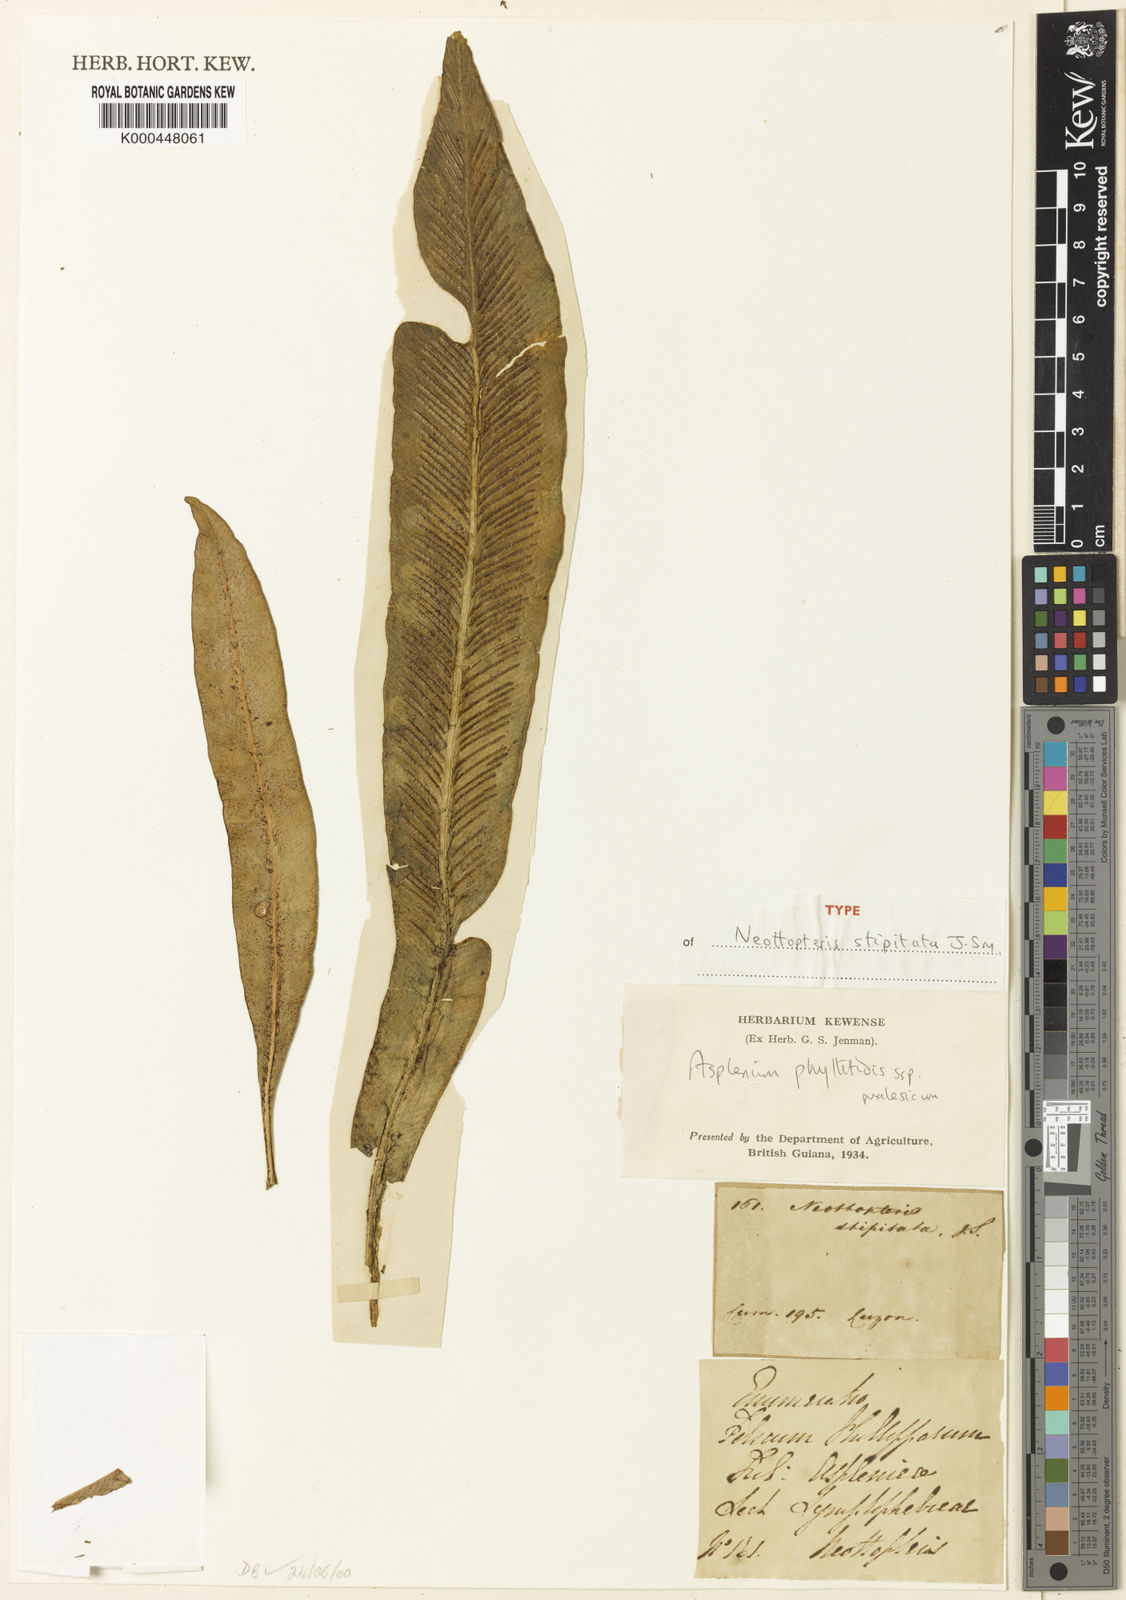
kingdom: Plantae
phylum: Tracheophyta
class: Polypodiopsida
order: Polypodiales
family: Aspleniaceae
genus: Asplenium
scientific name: Asplenium
